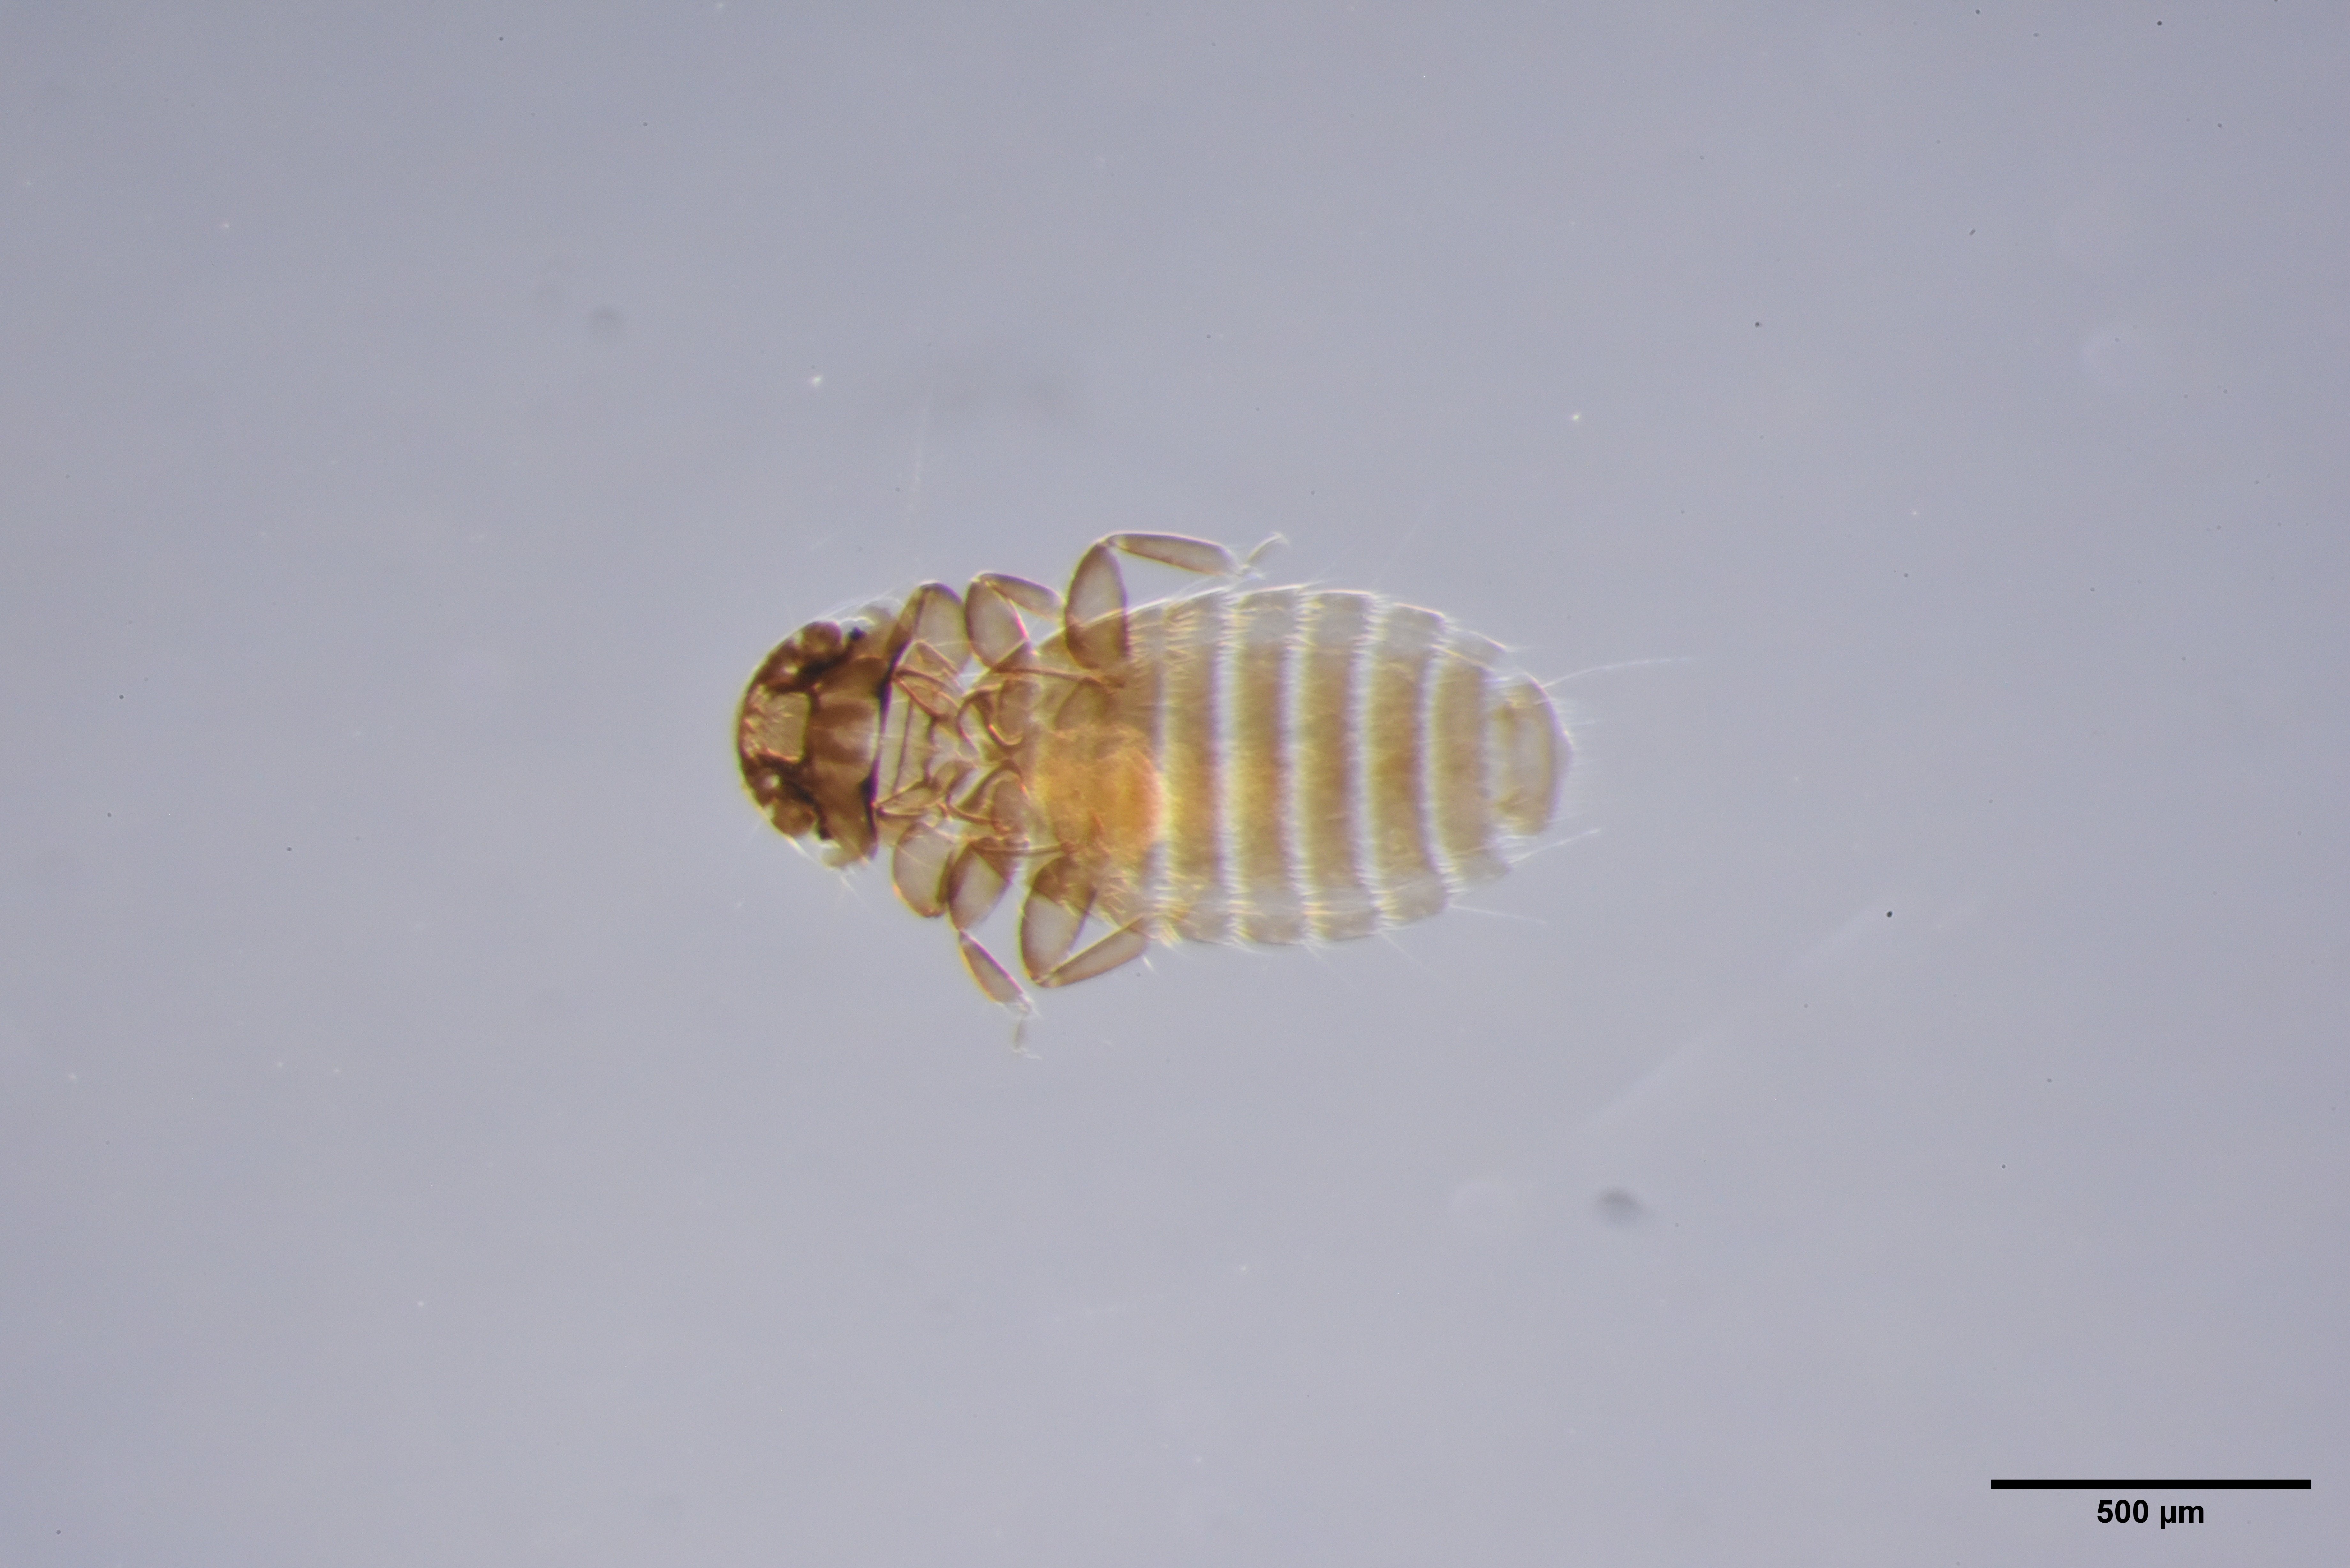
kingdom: Animalia
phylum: Arthropoda
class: Insecta
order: Psocodea
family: Menoponidae
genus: Menacanthus
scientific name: Menacanthus agilis
